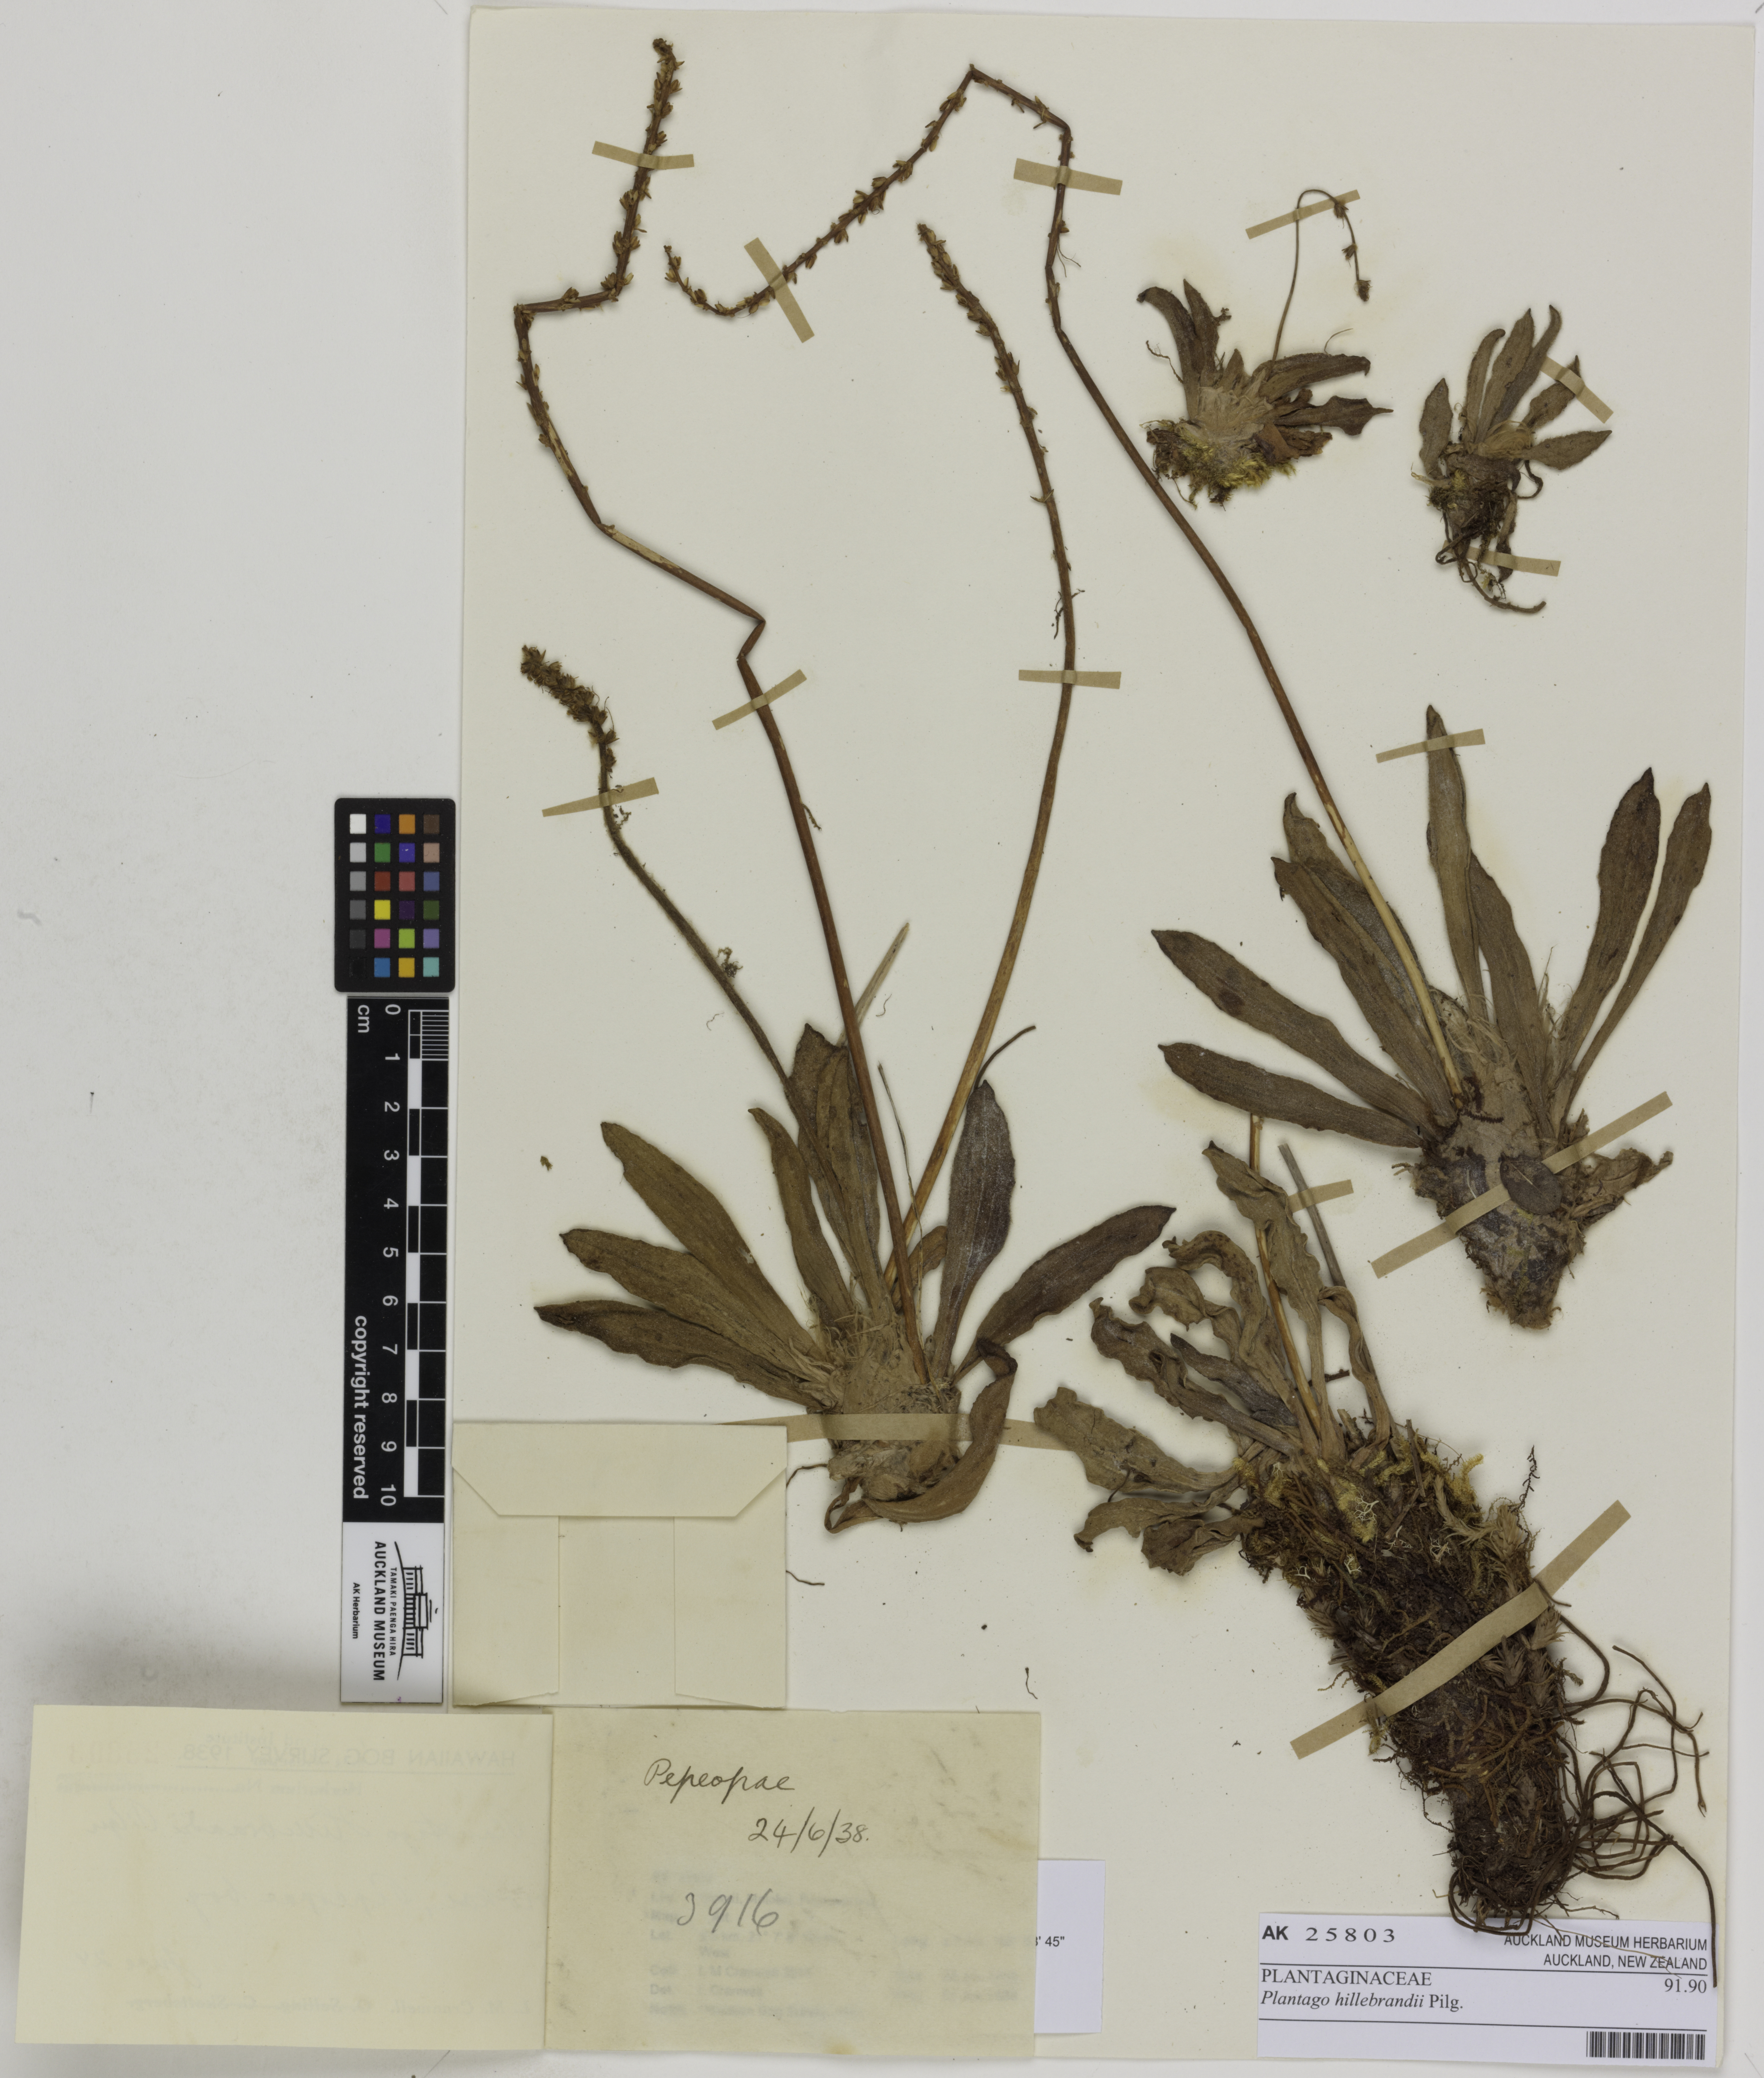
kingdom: Plantae
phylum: Tracheophyta
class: Magnoliopsida
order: Lamiales
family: Plantaginaceae
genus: Plantago
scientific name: Plantago pachyphylla
